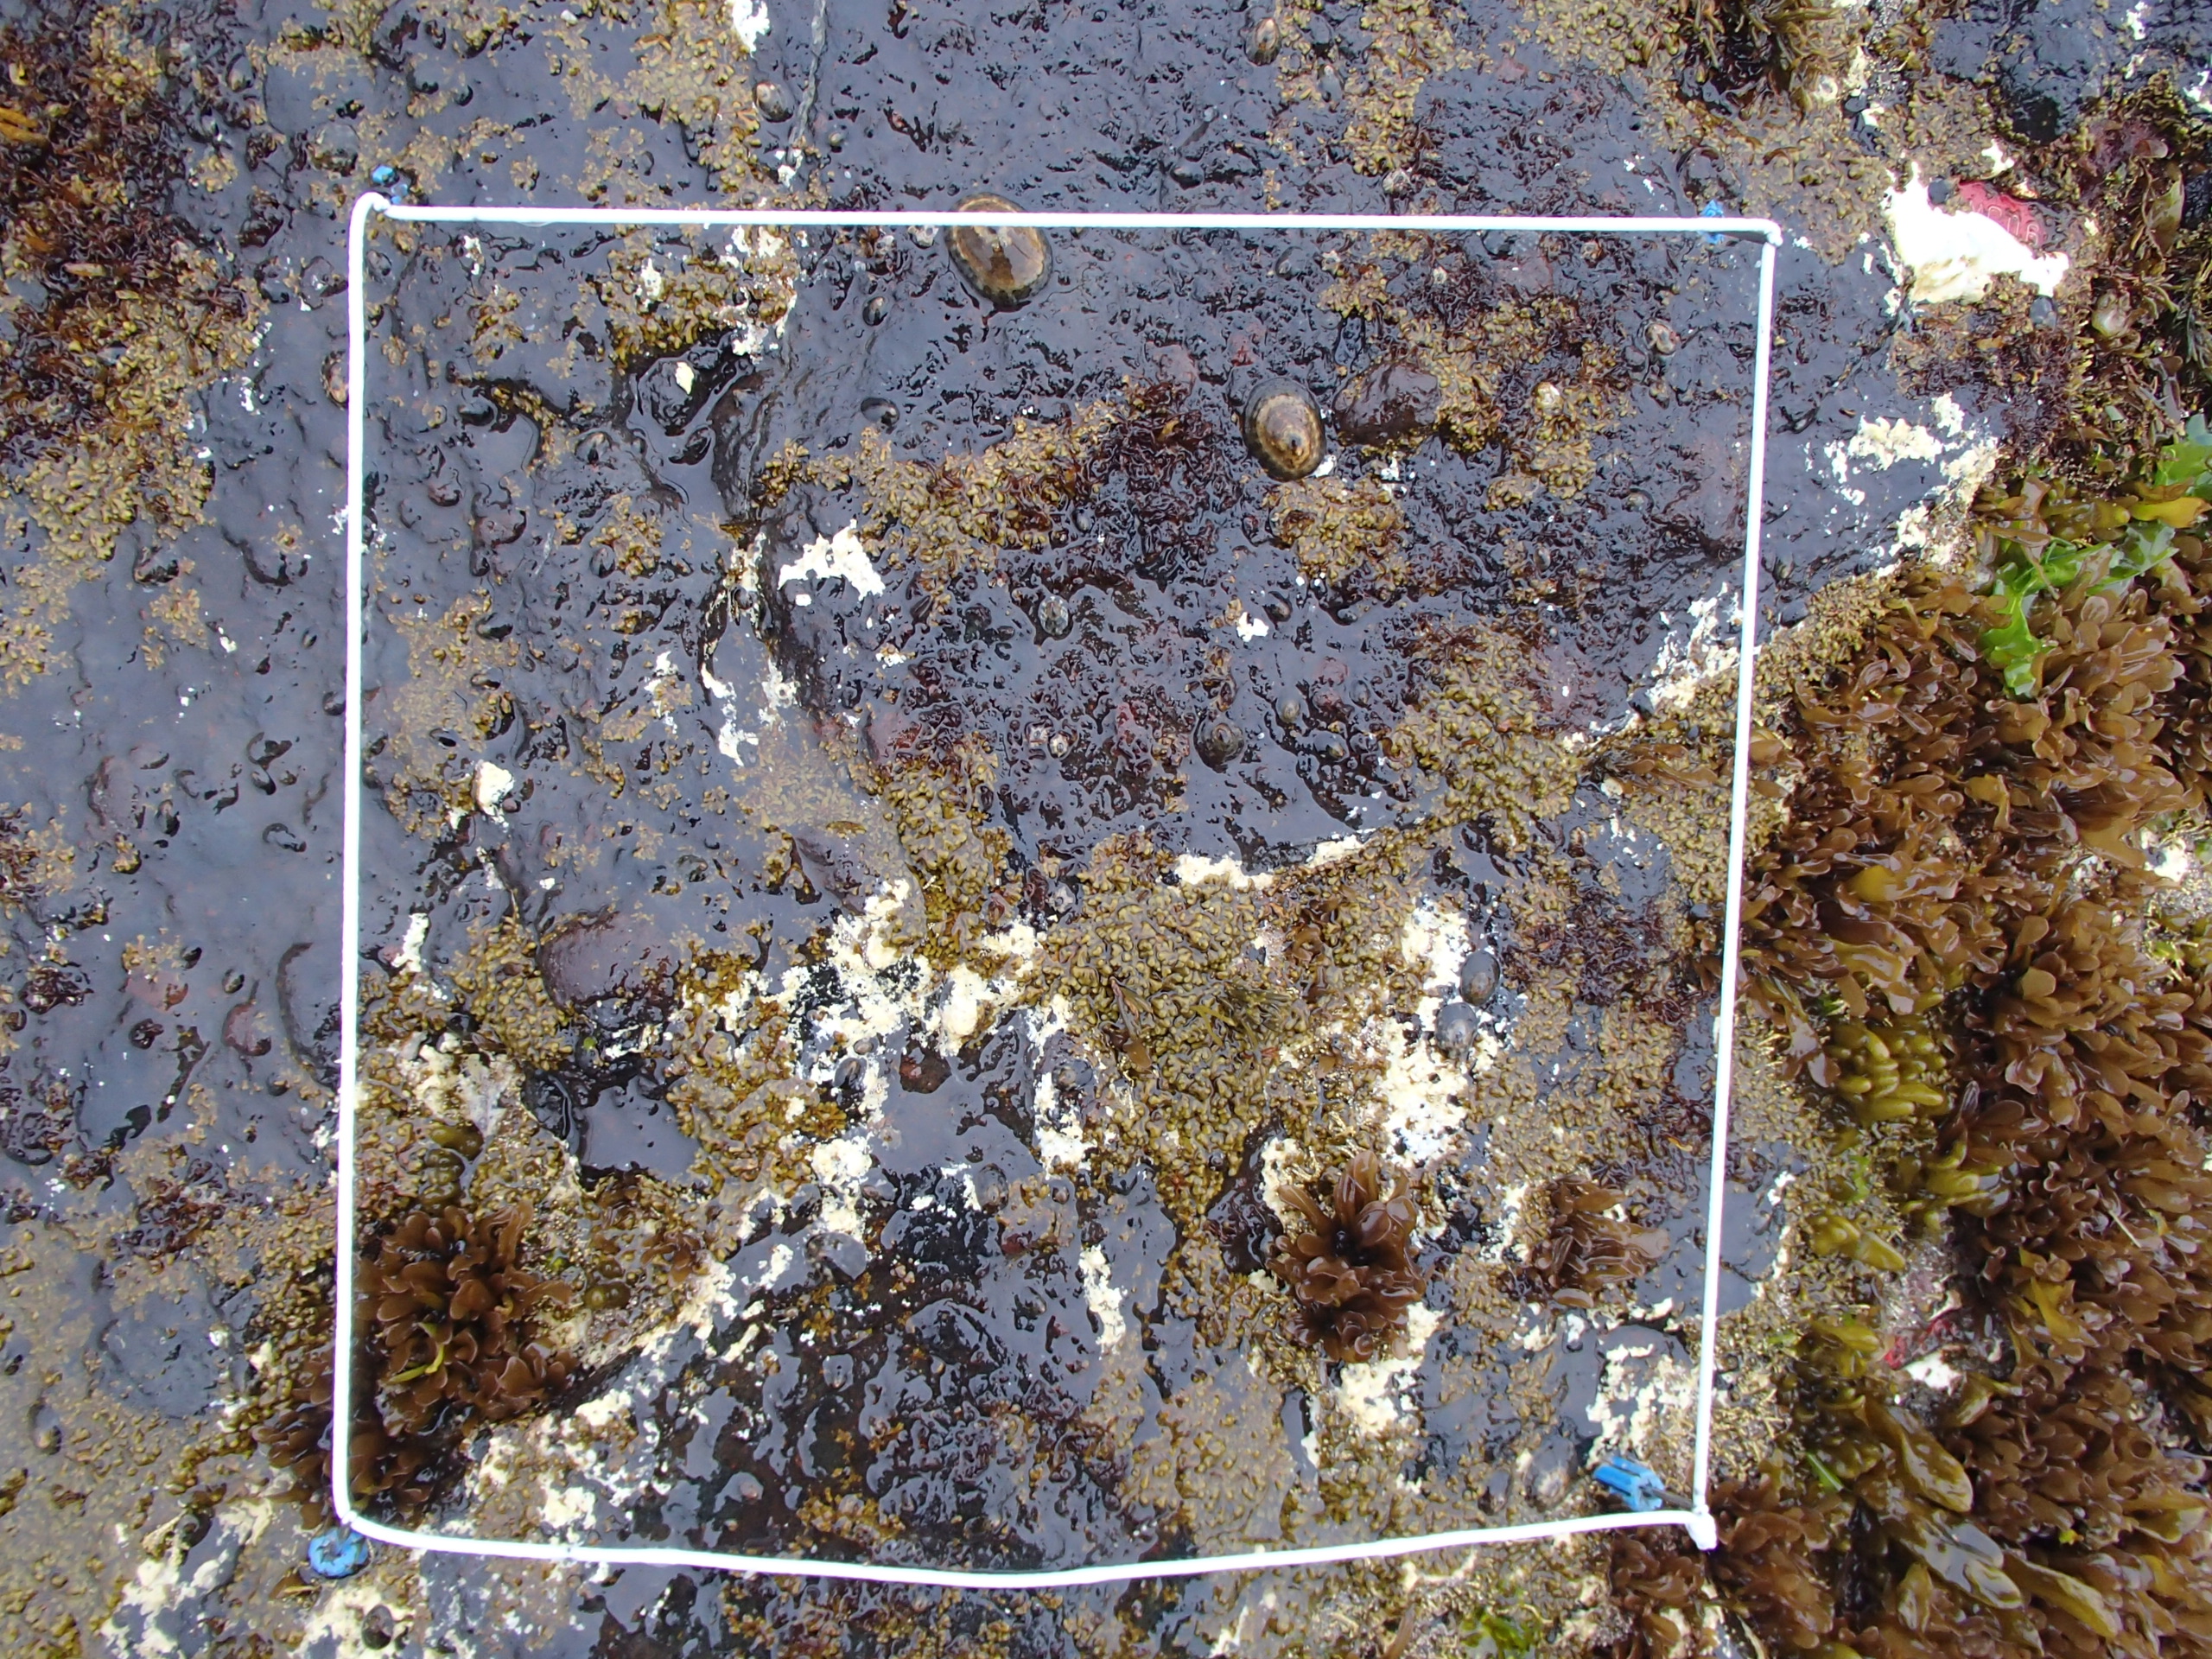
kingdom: Plantae
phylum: Rhodophyta
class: Florideophyceae
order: Corallinales
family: Corallinaceae
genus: Corallina
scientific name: Corallina pilulifera
